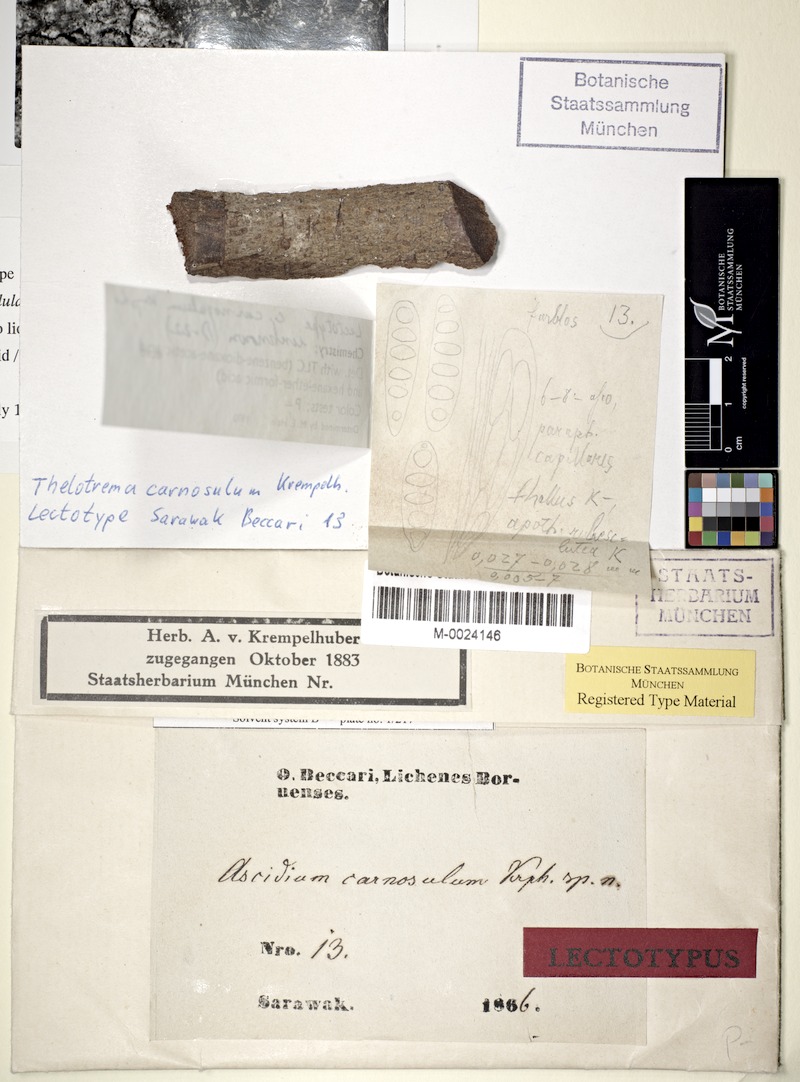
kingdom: Fungi
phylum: Ascomycota
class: Lecanoromycetes
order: Ostropales
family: Graphidaceae
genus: Ocellularia
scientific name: Ocellularia carnosula
